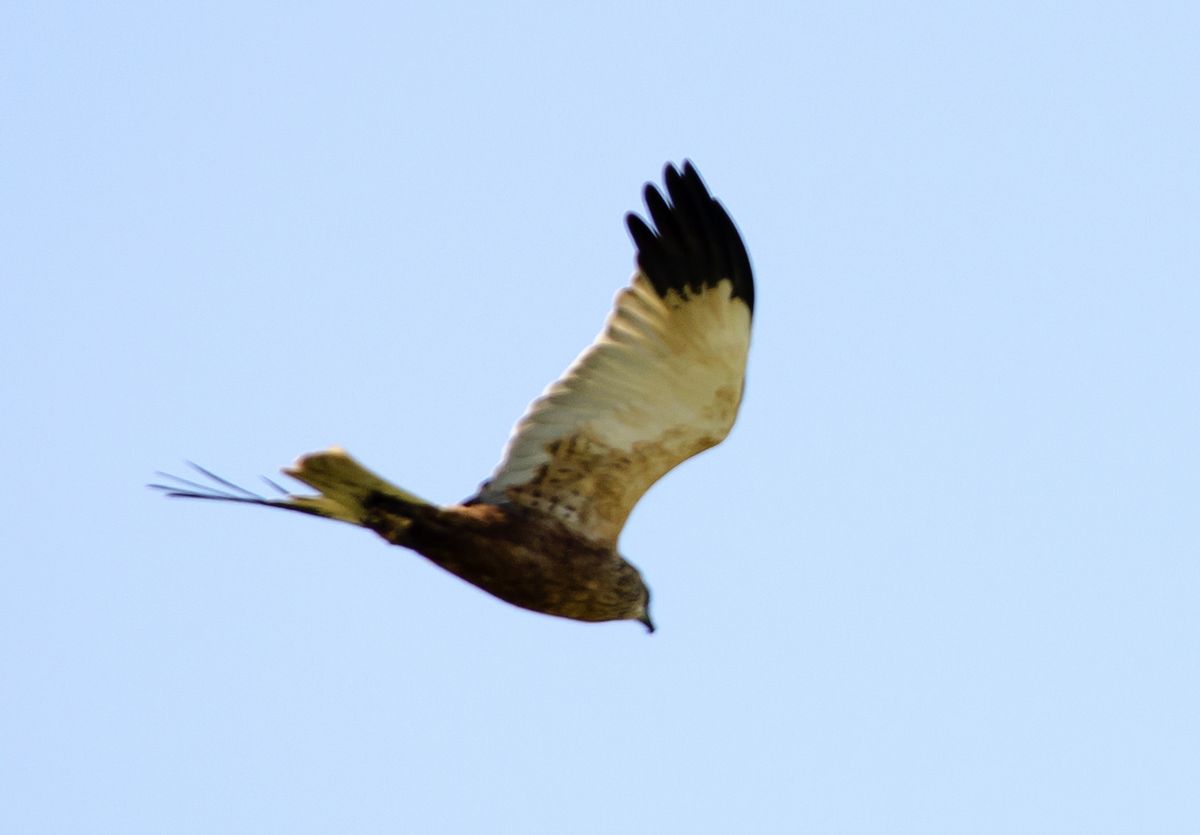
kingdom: Animalia
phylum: Chordata
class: Aves
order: Accipitriformes
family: Accipitridae
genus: Circus
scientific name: Circus aeruginosus
